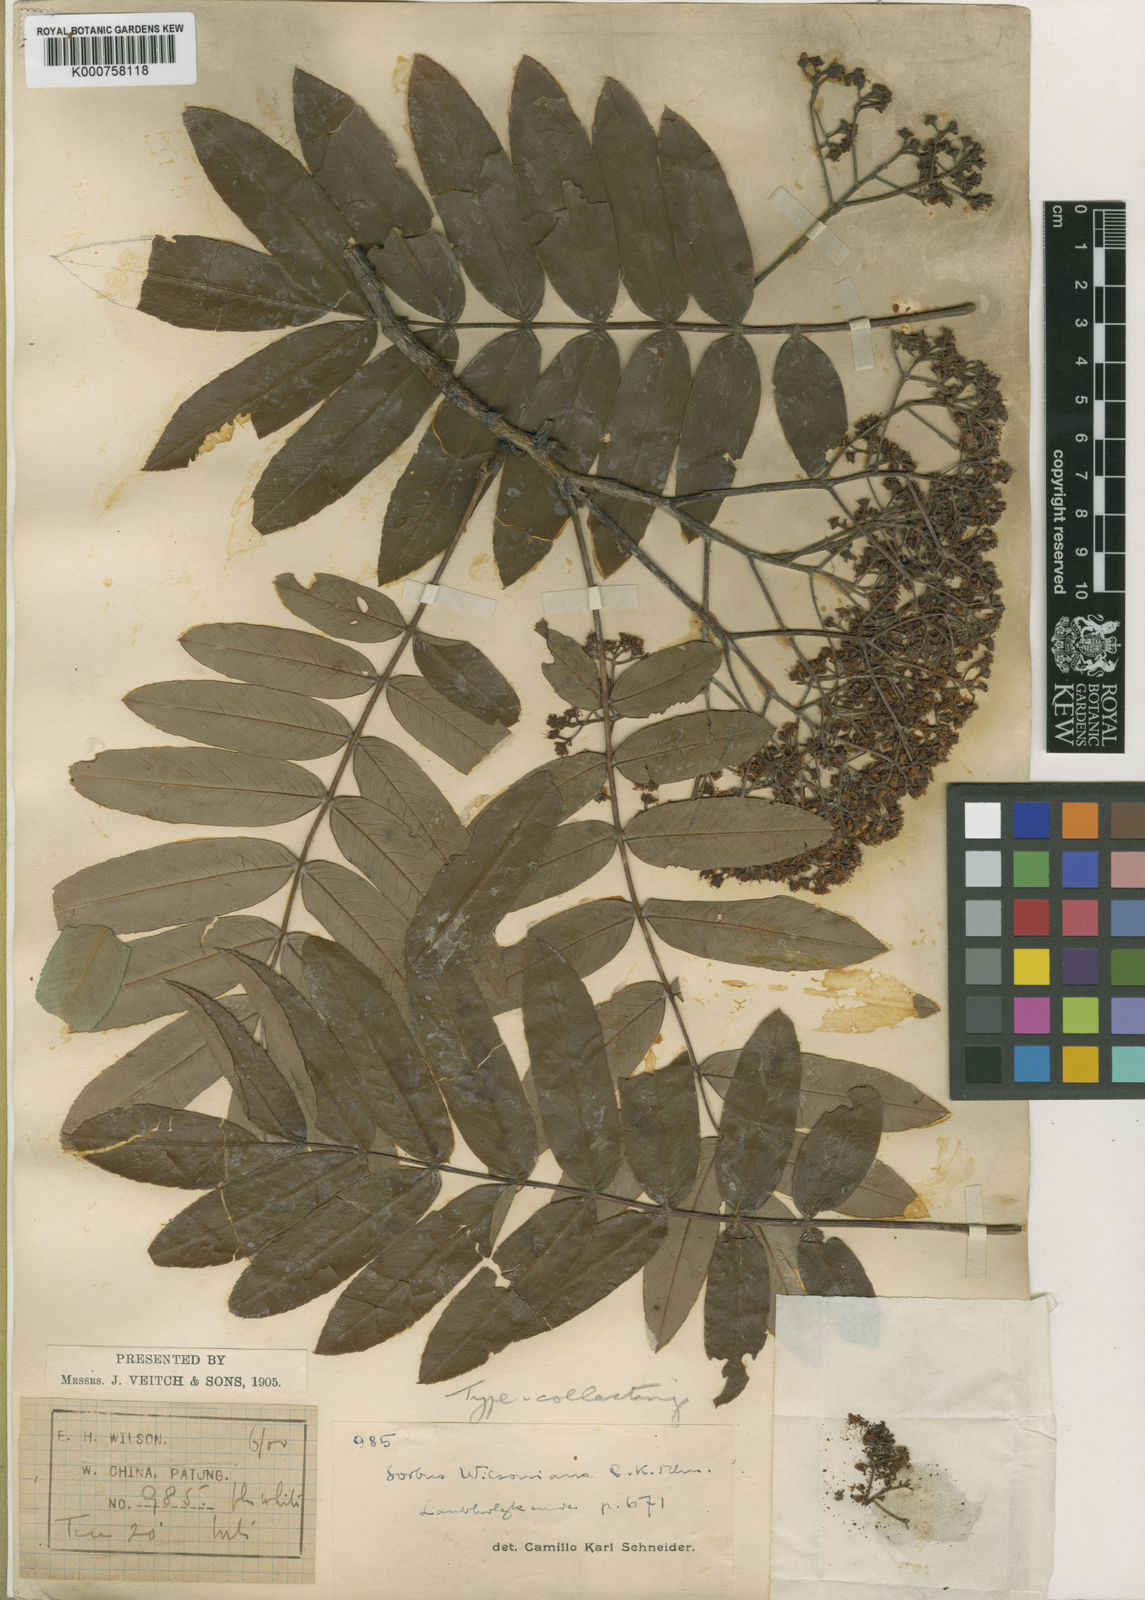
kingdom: Plantae
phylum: Tracheophyta
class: Magnoliopsida
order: Rosales
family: Rosaceae
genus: Sorbus
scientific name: Sorbus wilsoniana
